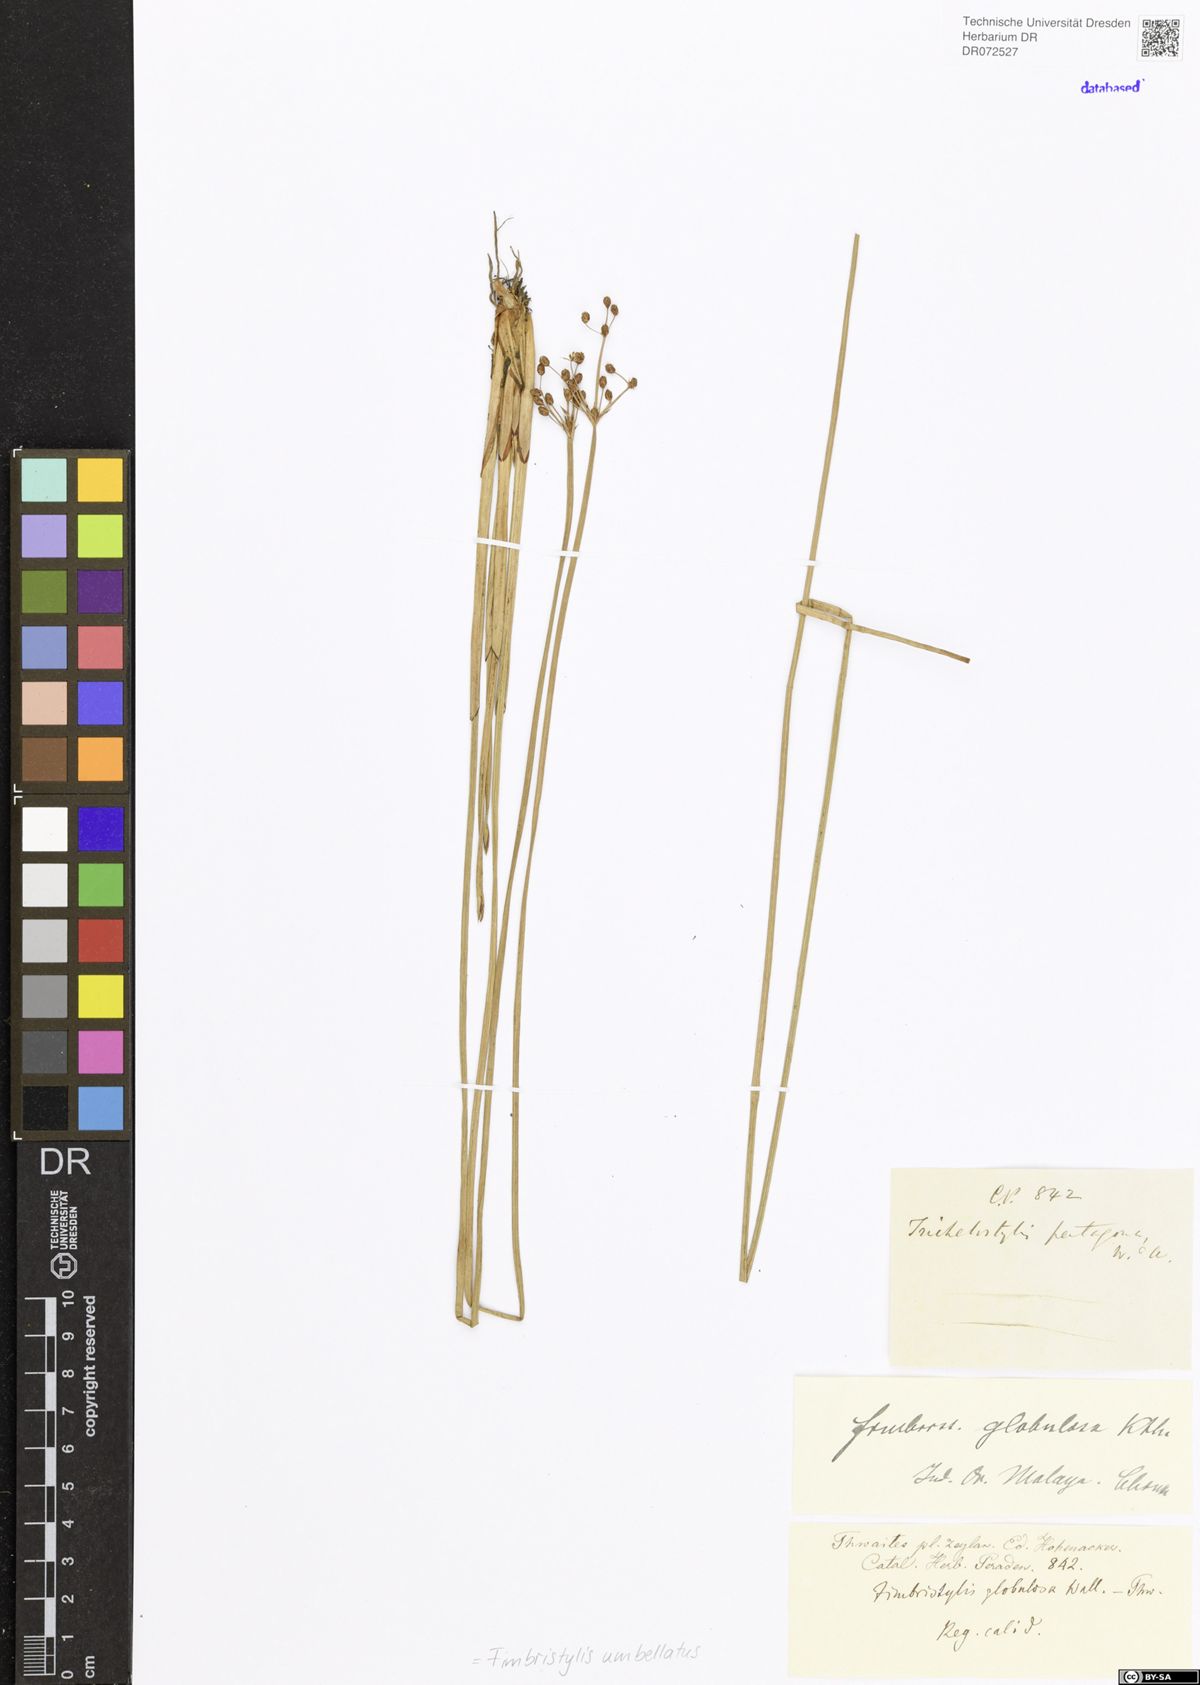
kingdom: Plantae
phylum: Tracheophyta
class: Liliopsida
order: Poales
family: Cyperaceae
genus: Fimbristylis
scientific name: Fimbristylis umbellaris
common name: Globular fimbristylis
